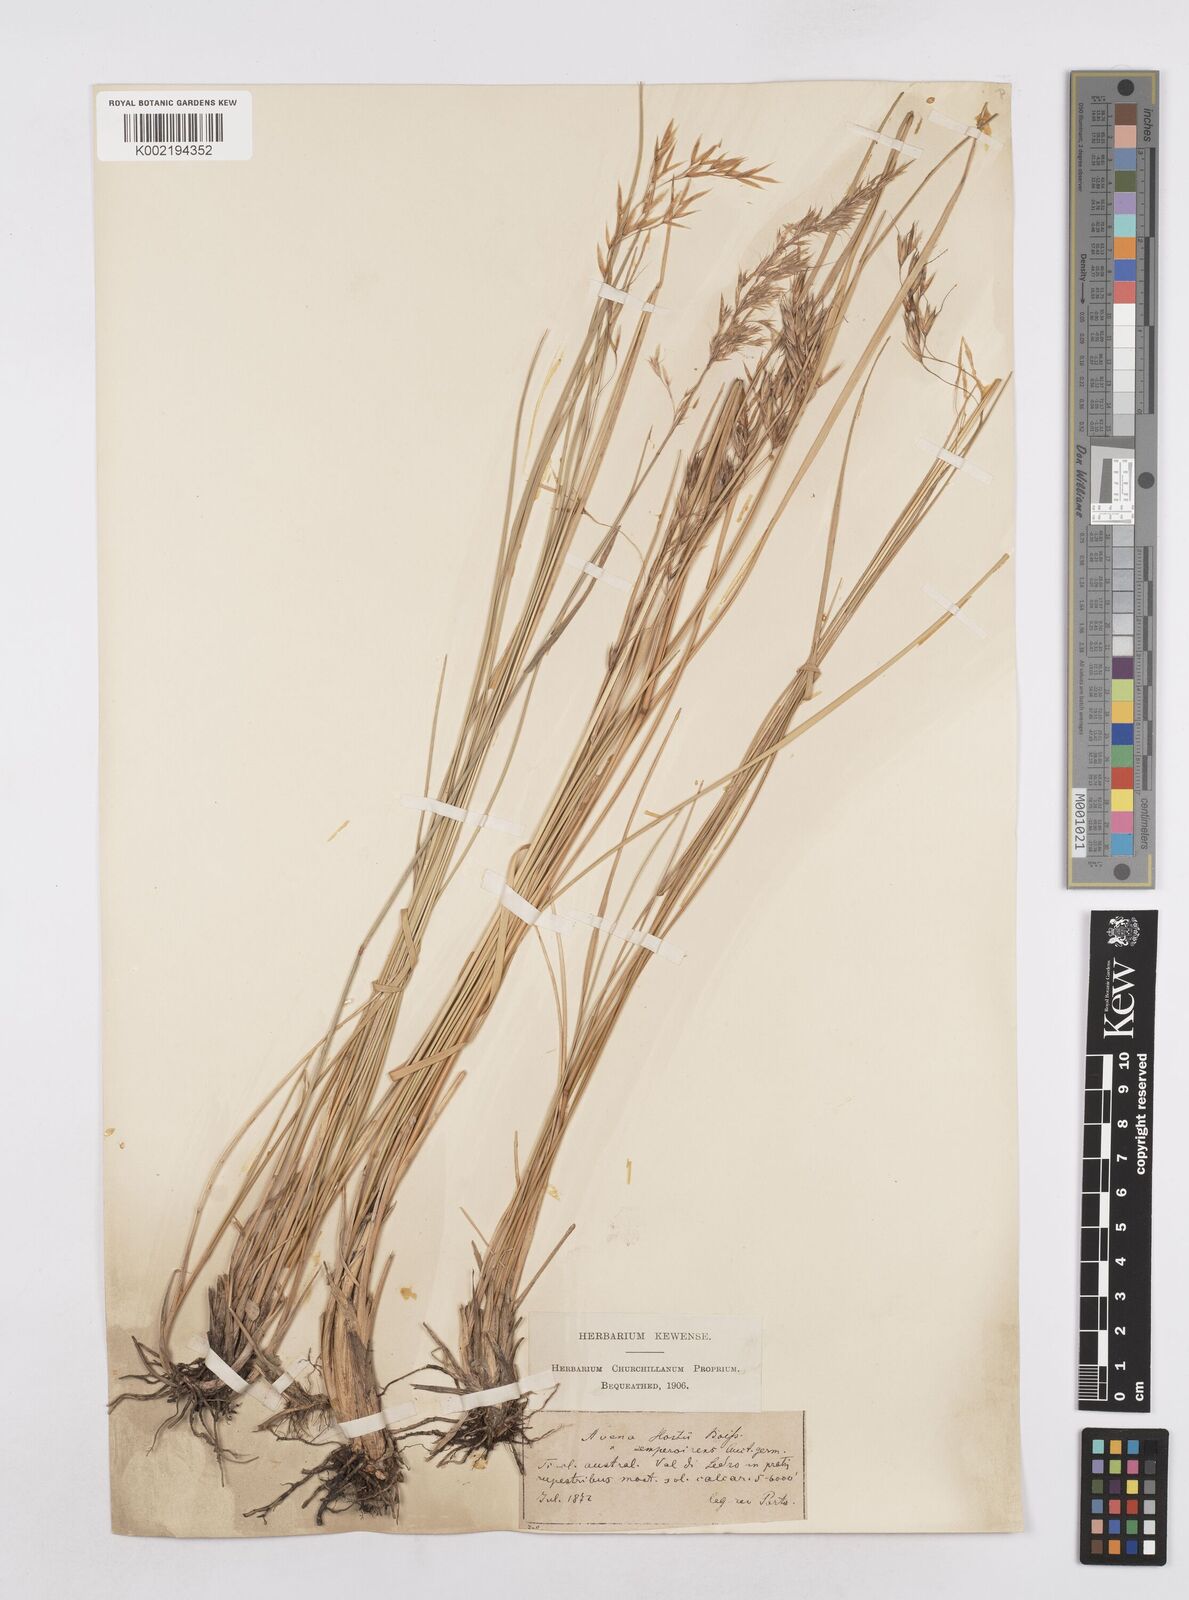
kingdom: Plantae
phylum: Tracheophyta
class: Liliopsida
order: Poales
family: Poaceae
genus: Helictotrichon
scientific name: Helictotrichon parlatorei
